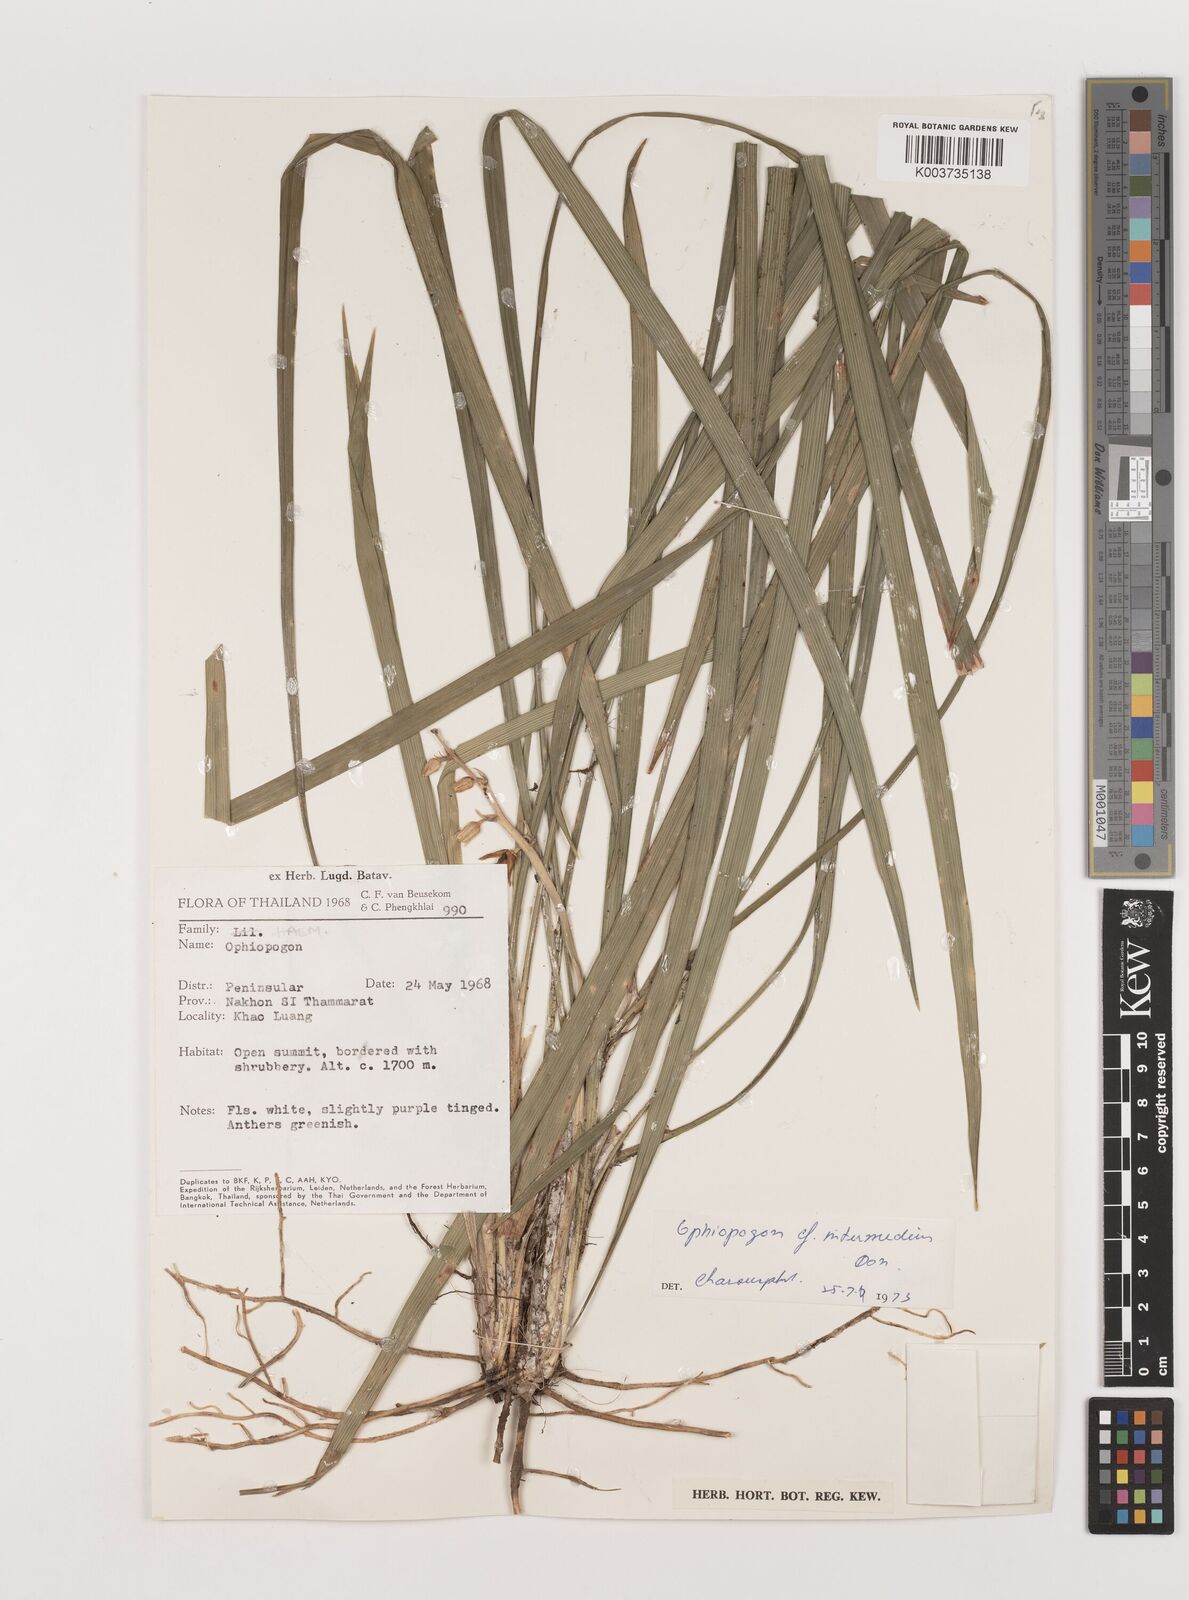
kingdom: Plantae
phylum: Tracheophyta
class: Liliopsida
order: Asparagales
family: Asparagaceae
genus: Ophiopogon
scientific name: Ophiopogon intermedius
